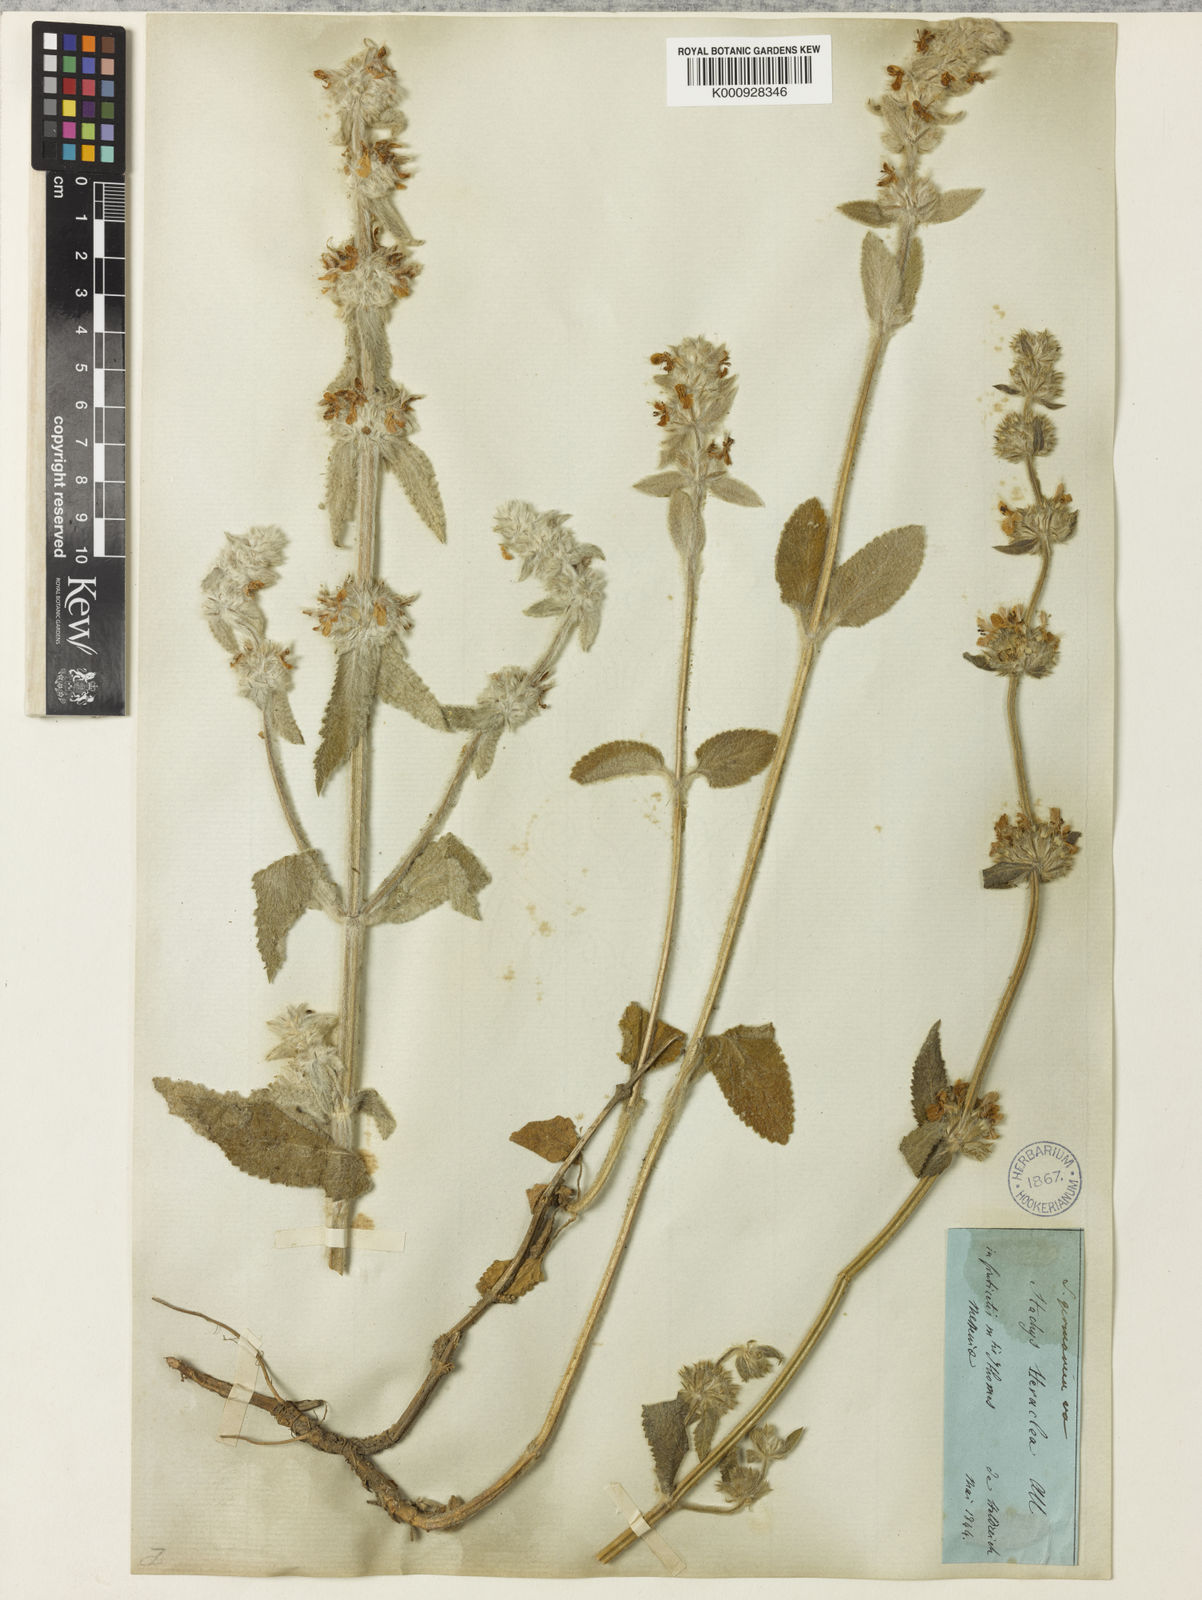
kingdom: Plantae
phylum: Tracheophyta
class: Magnoliopsida
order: Lamiales
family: Lamiaceae
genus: Stachys
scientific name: Stachys cretica
